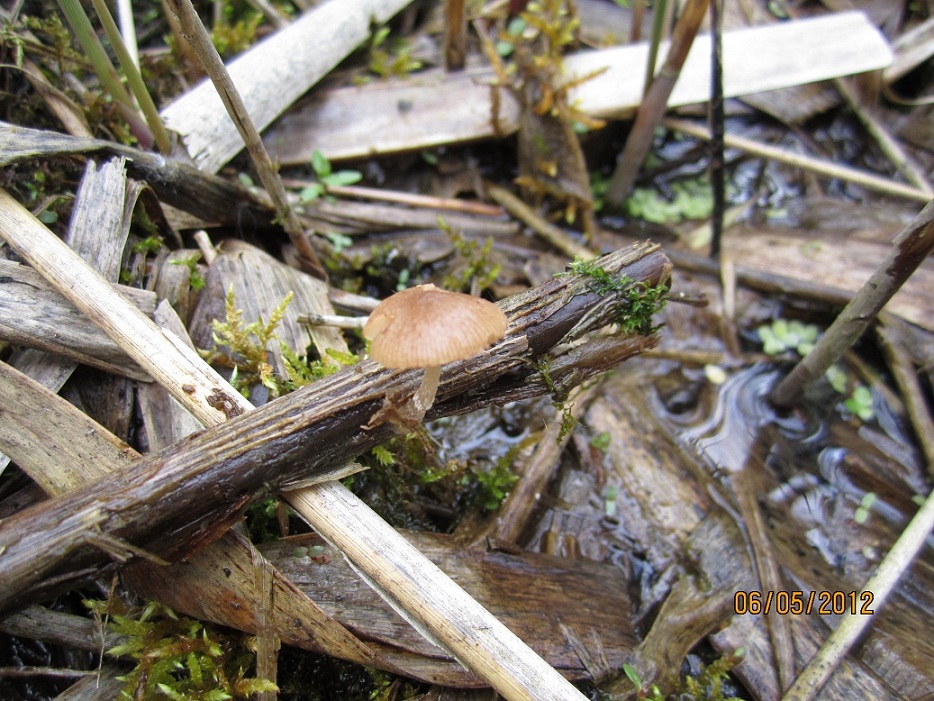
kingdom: Fungi
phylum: Basidiomycota
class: Agaricomycetes
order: Agaricales
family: Psathyrellaceae
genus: Candolleomyces
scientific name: Candolleomyces typhae
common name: dunhammer-mørkhat
